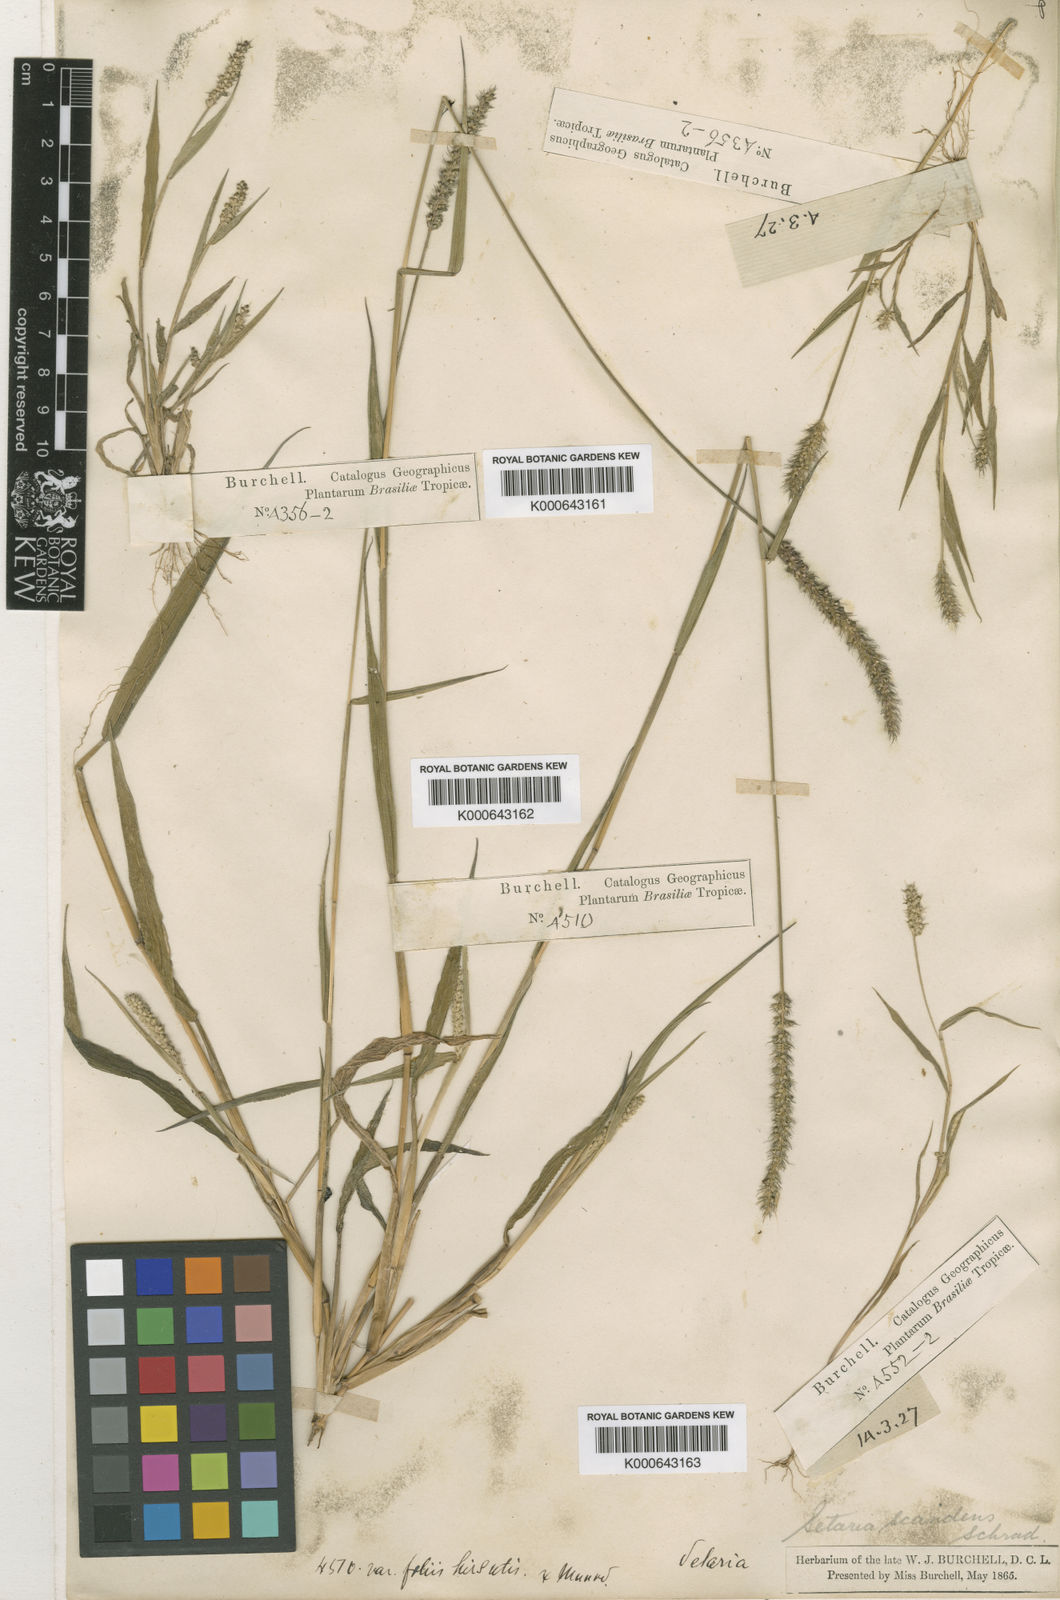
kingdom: Plantae
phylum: Tracheophyta
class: Liliopsida
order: Poales
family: Poaceae
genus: Setaria
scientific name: Setaria tenax
